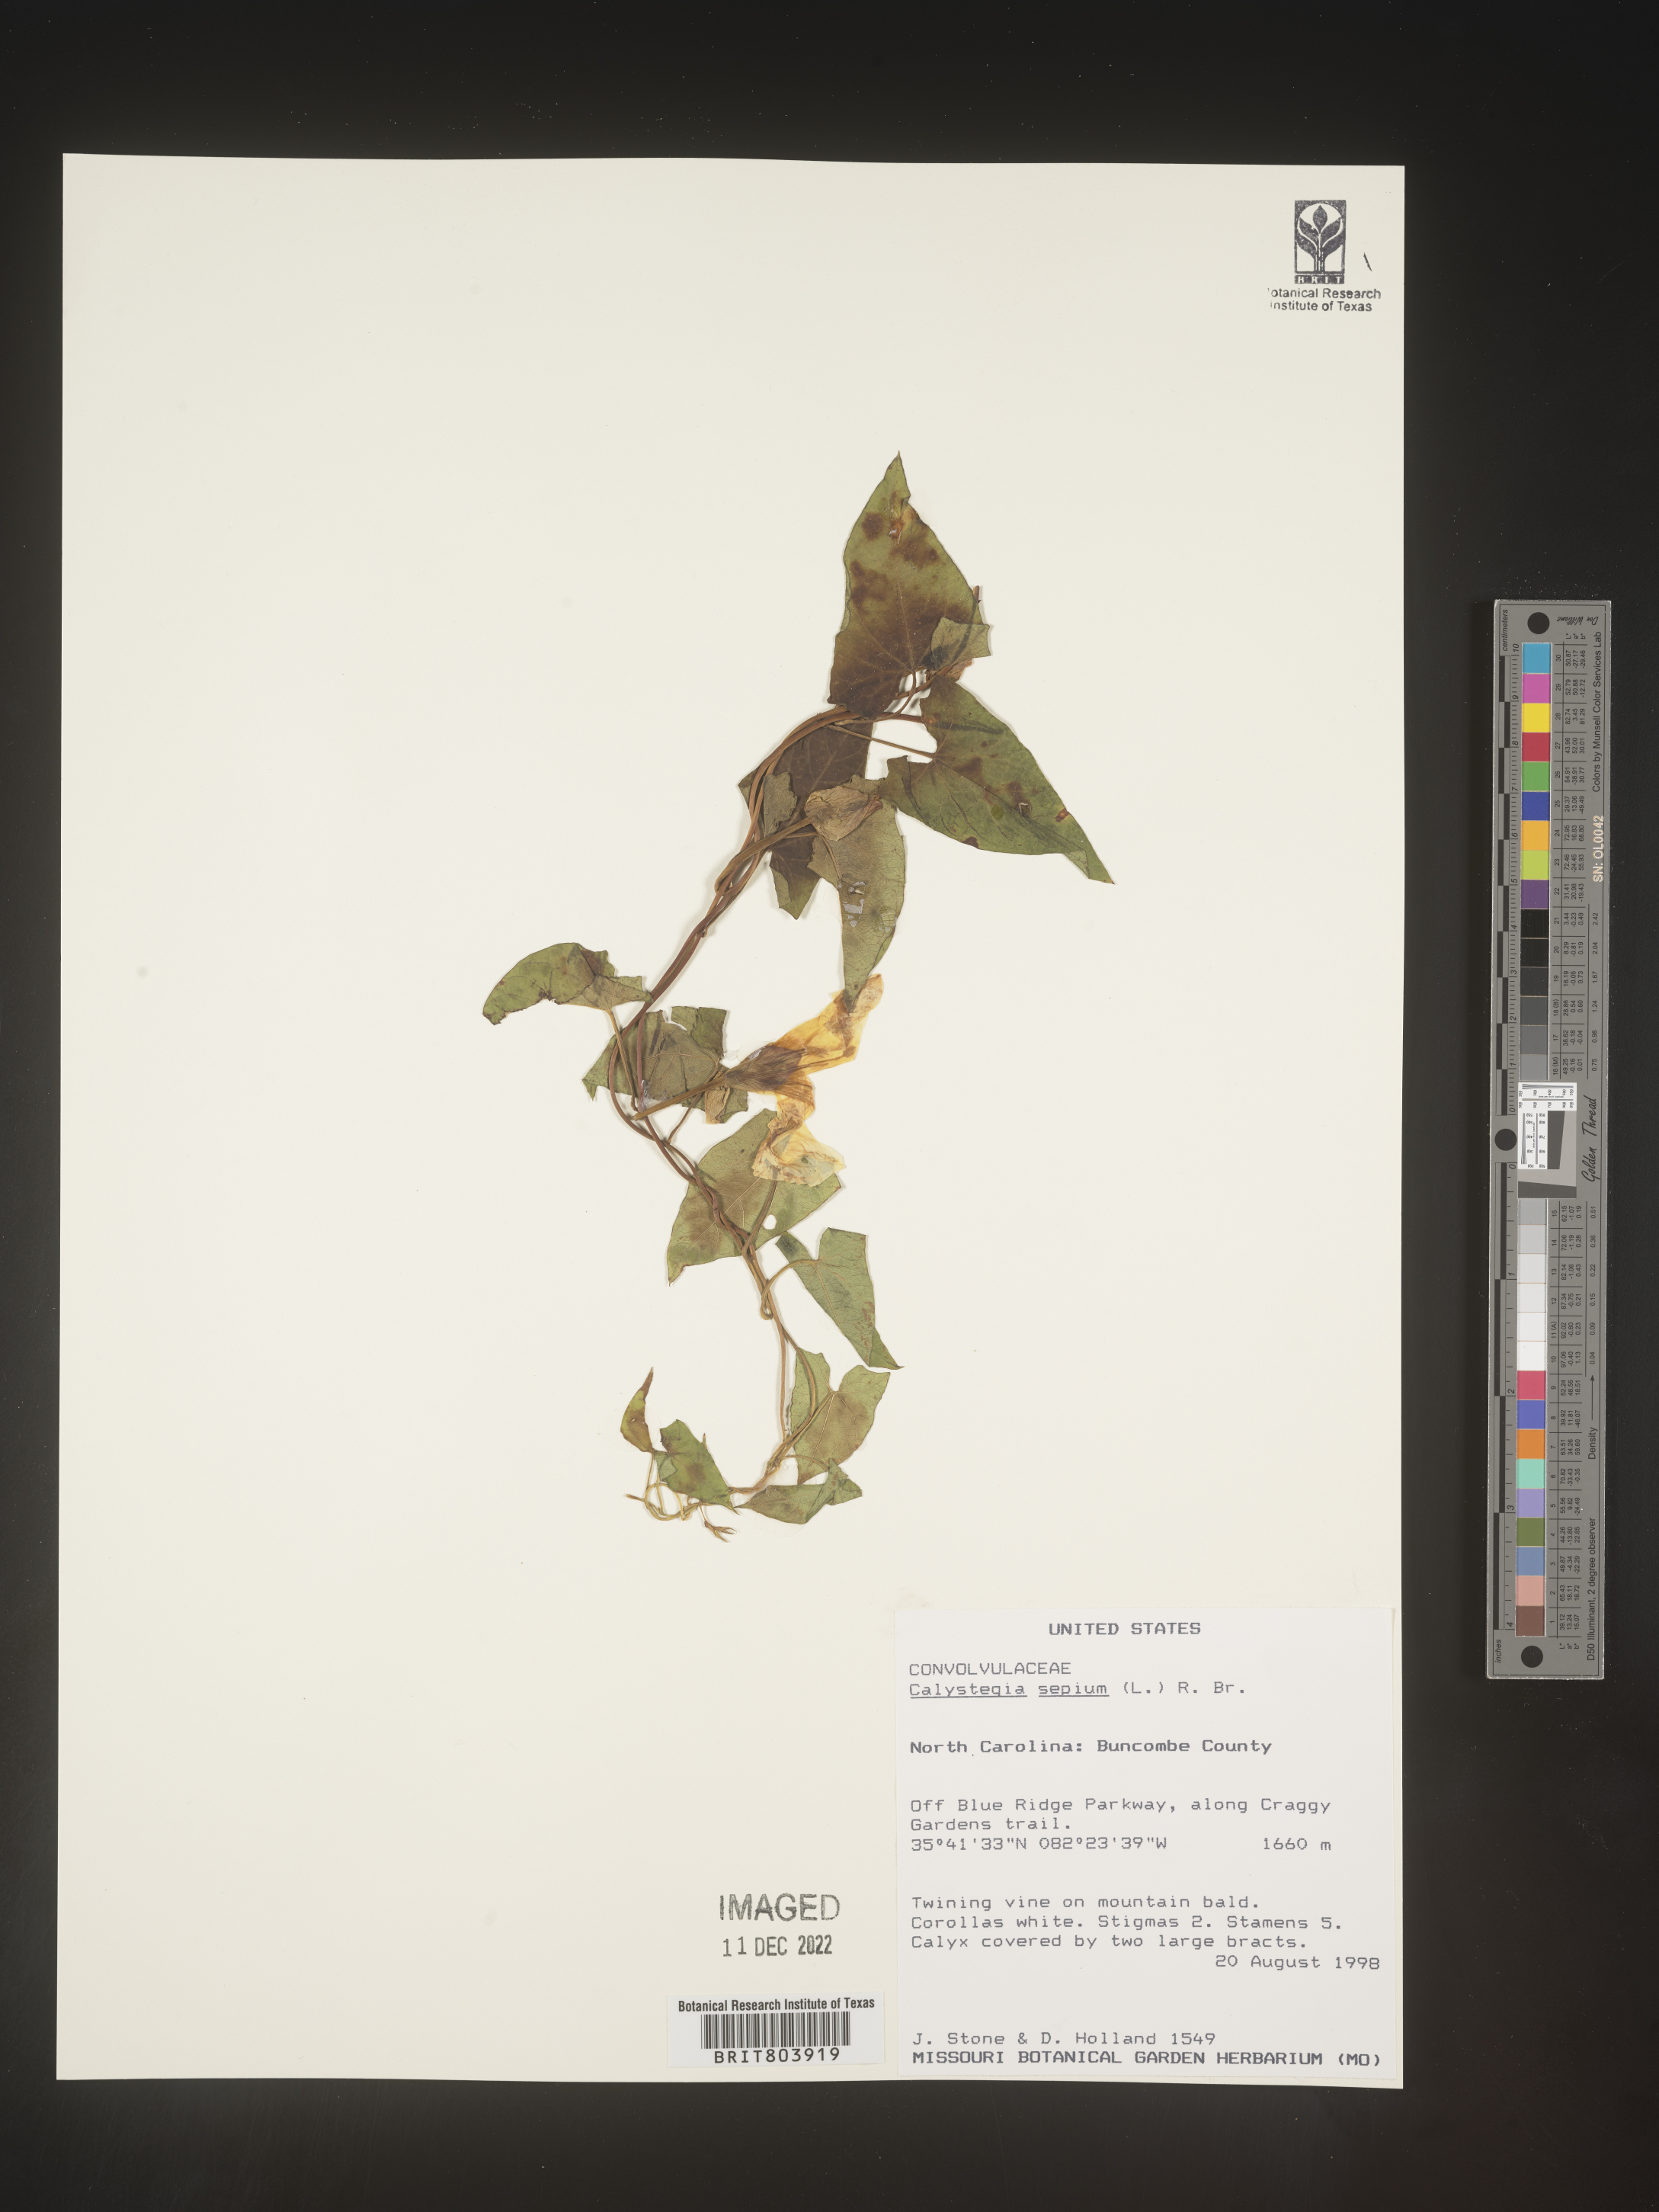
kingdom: Plantae
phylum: Tracheophyta
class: Magnoliopsida
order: Solanales
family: Convolvulaceae
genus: Calystegia
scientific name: Calystegia sepium
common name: Hedge bindweed
